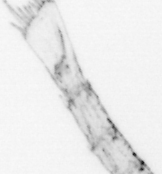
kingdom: Animalia
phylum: Arthropoda
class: Malacostraca
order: Decapoda
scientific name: Decapoda
